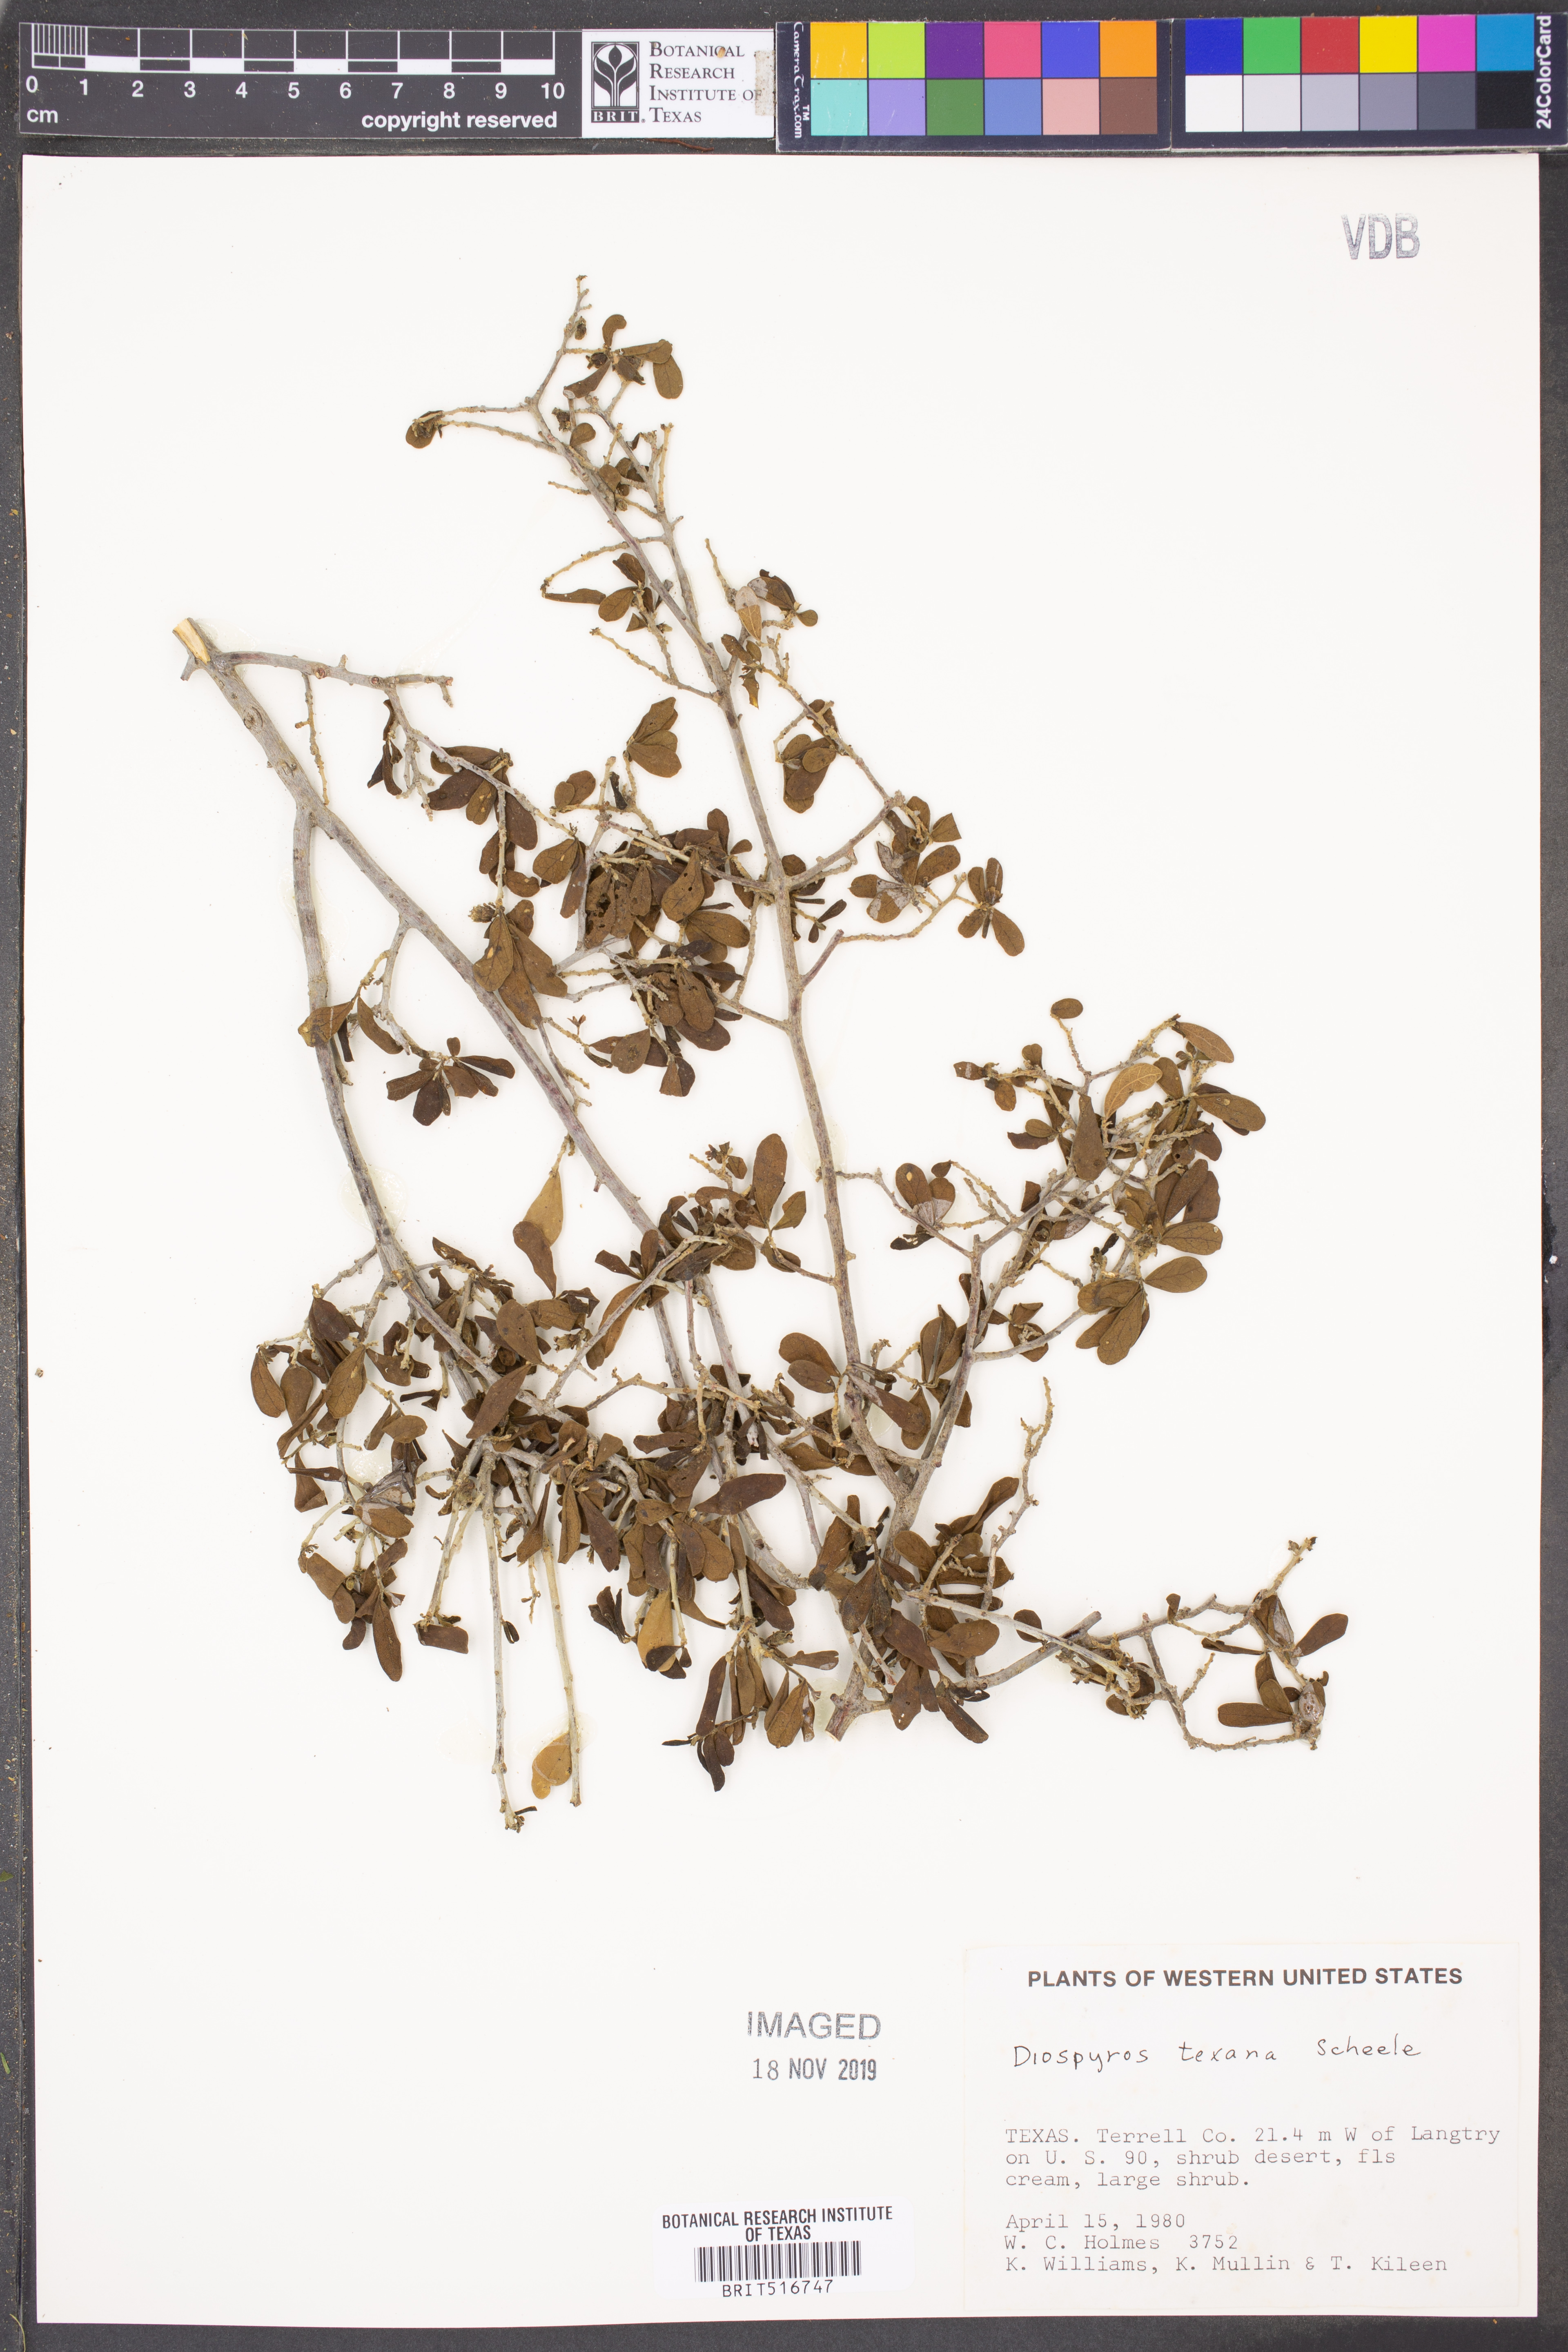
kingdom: Plantae
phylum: Tracheophyta
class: Magnoliopsida
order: Ericales
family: Ebenaceae
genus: Diospyros
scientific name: Diospyros texana
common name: Texas persimmon
